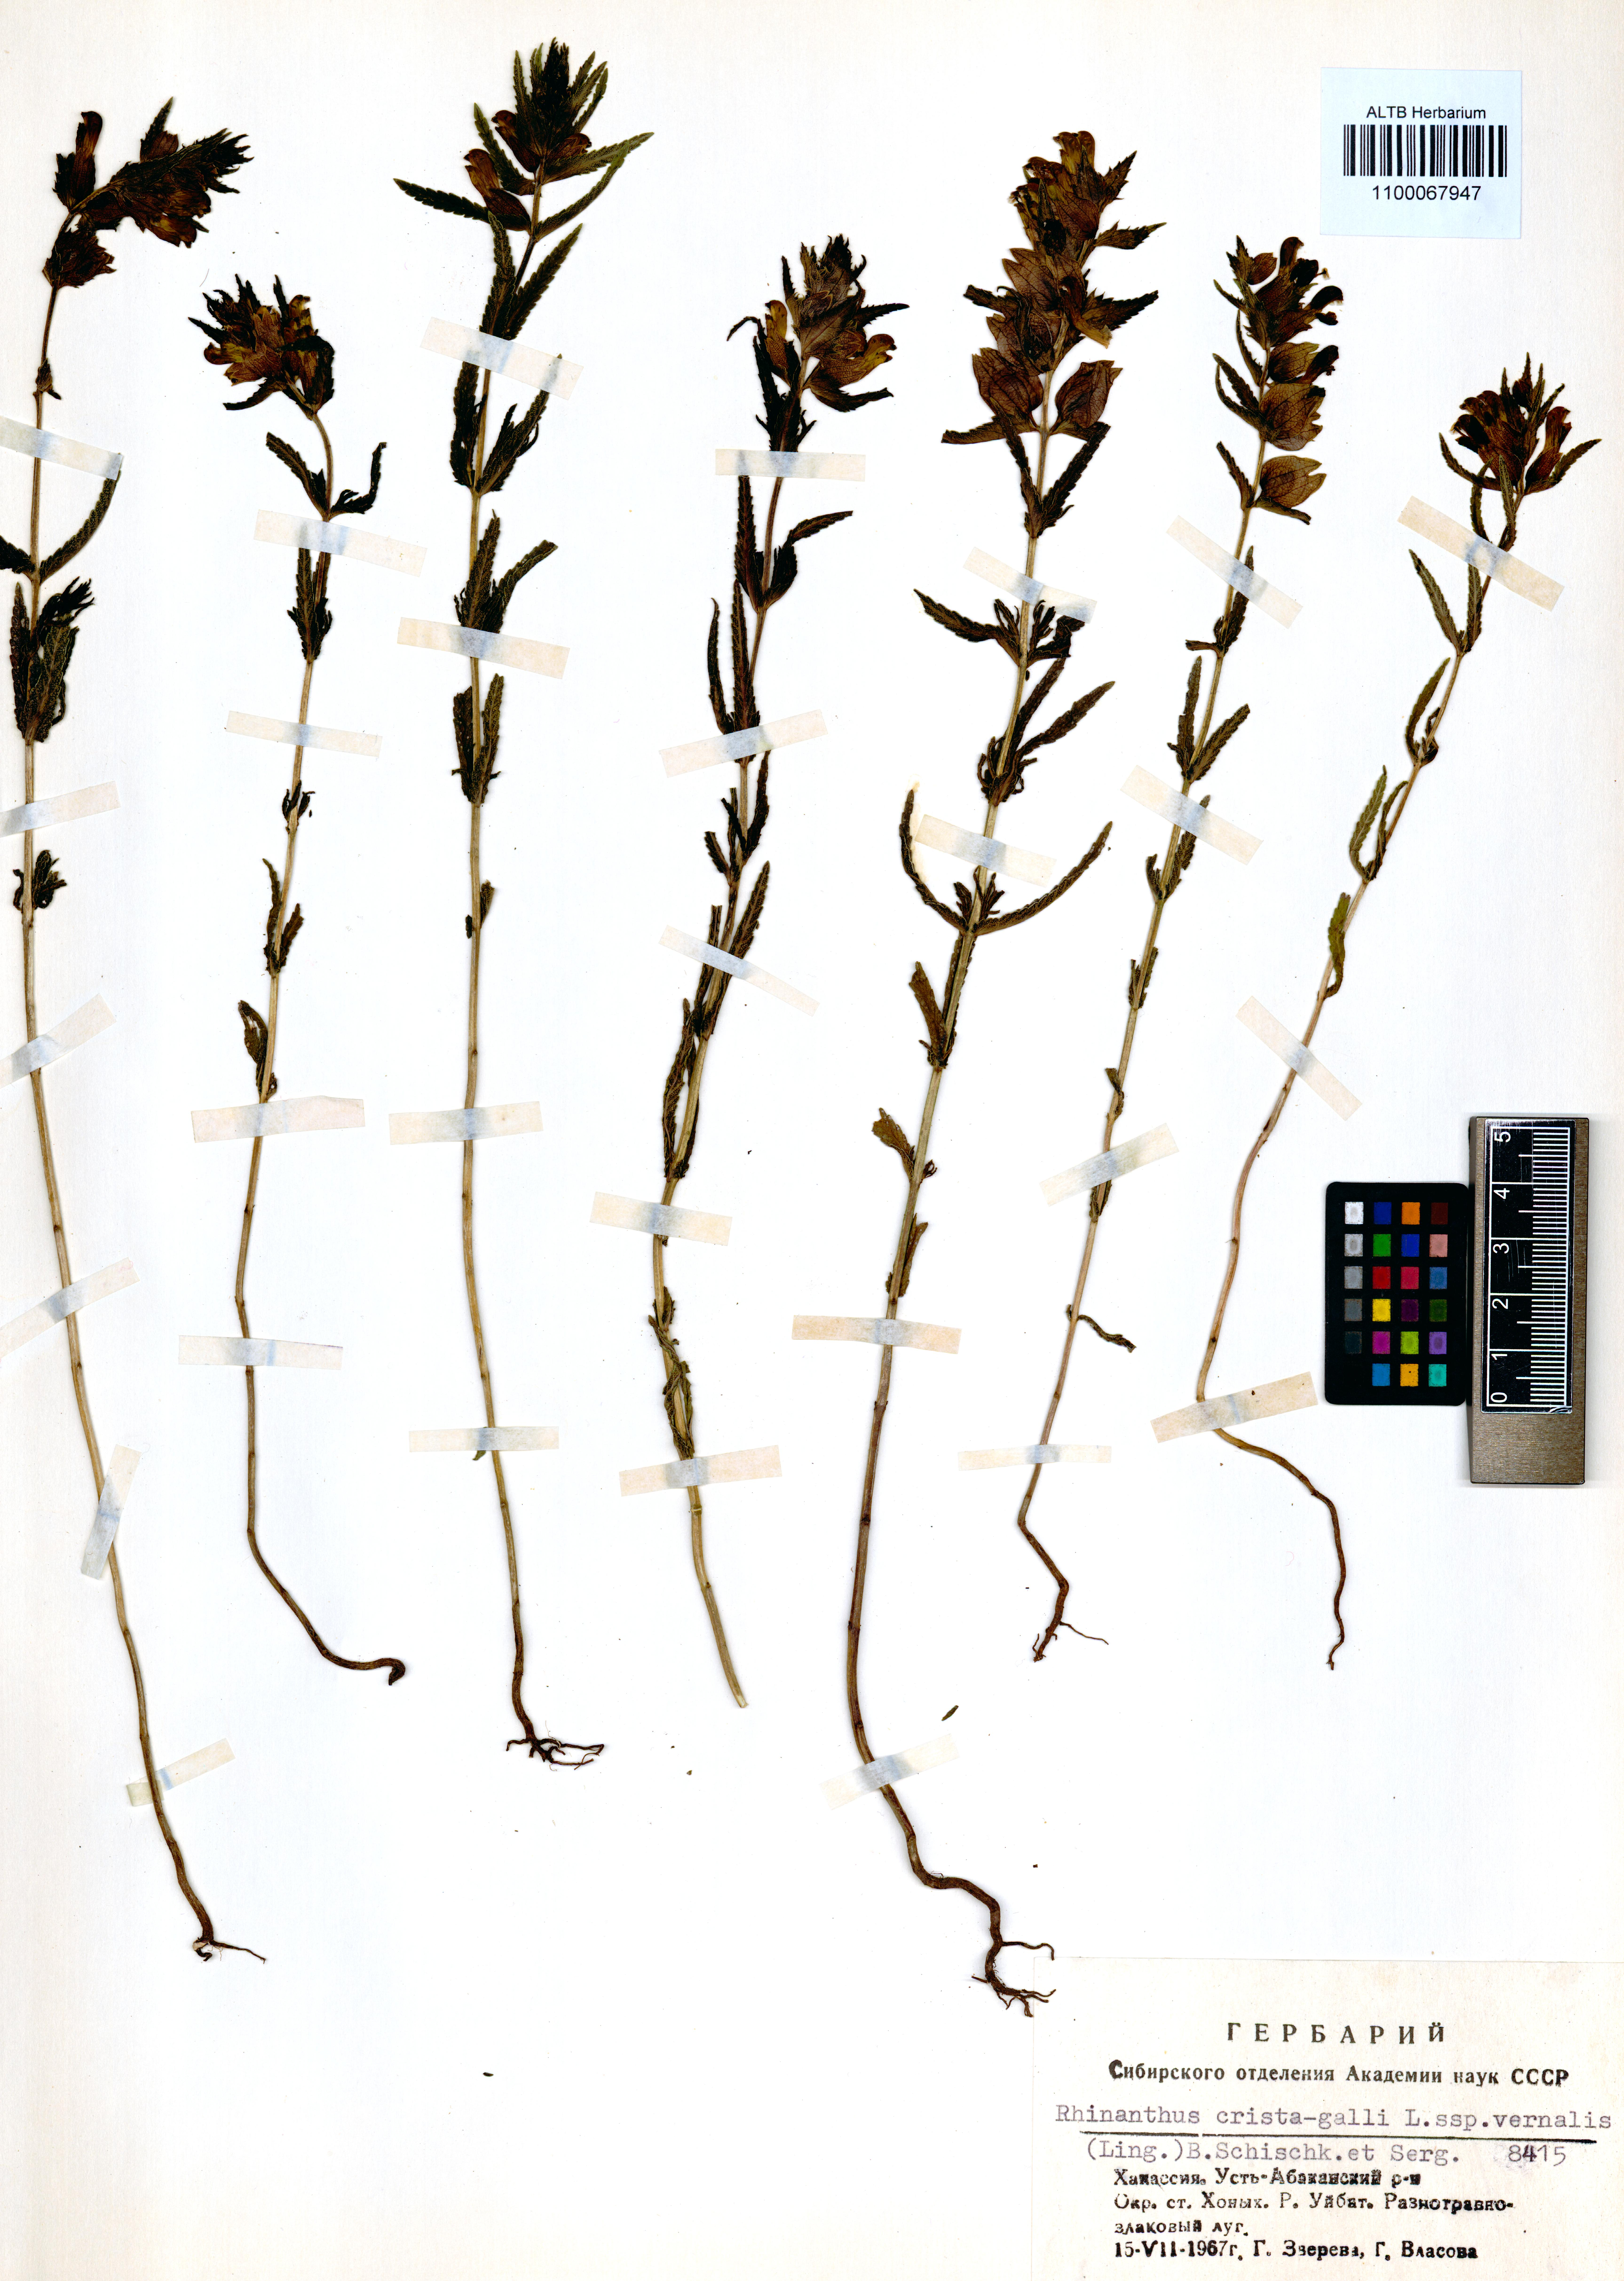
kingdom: Plantae
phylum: Tracheophyta
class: Magnoliopsida
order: Lamiales
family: Orobanchaceae
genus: Rhinanthus
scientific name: Rhinanthus minor
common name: Yellow-rattle
